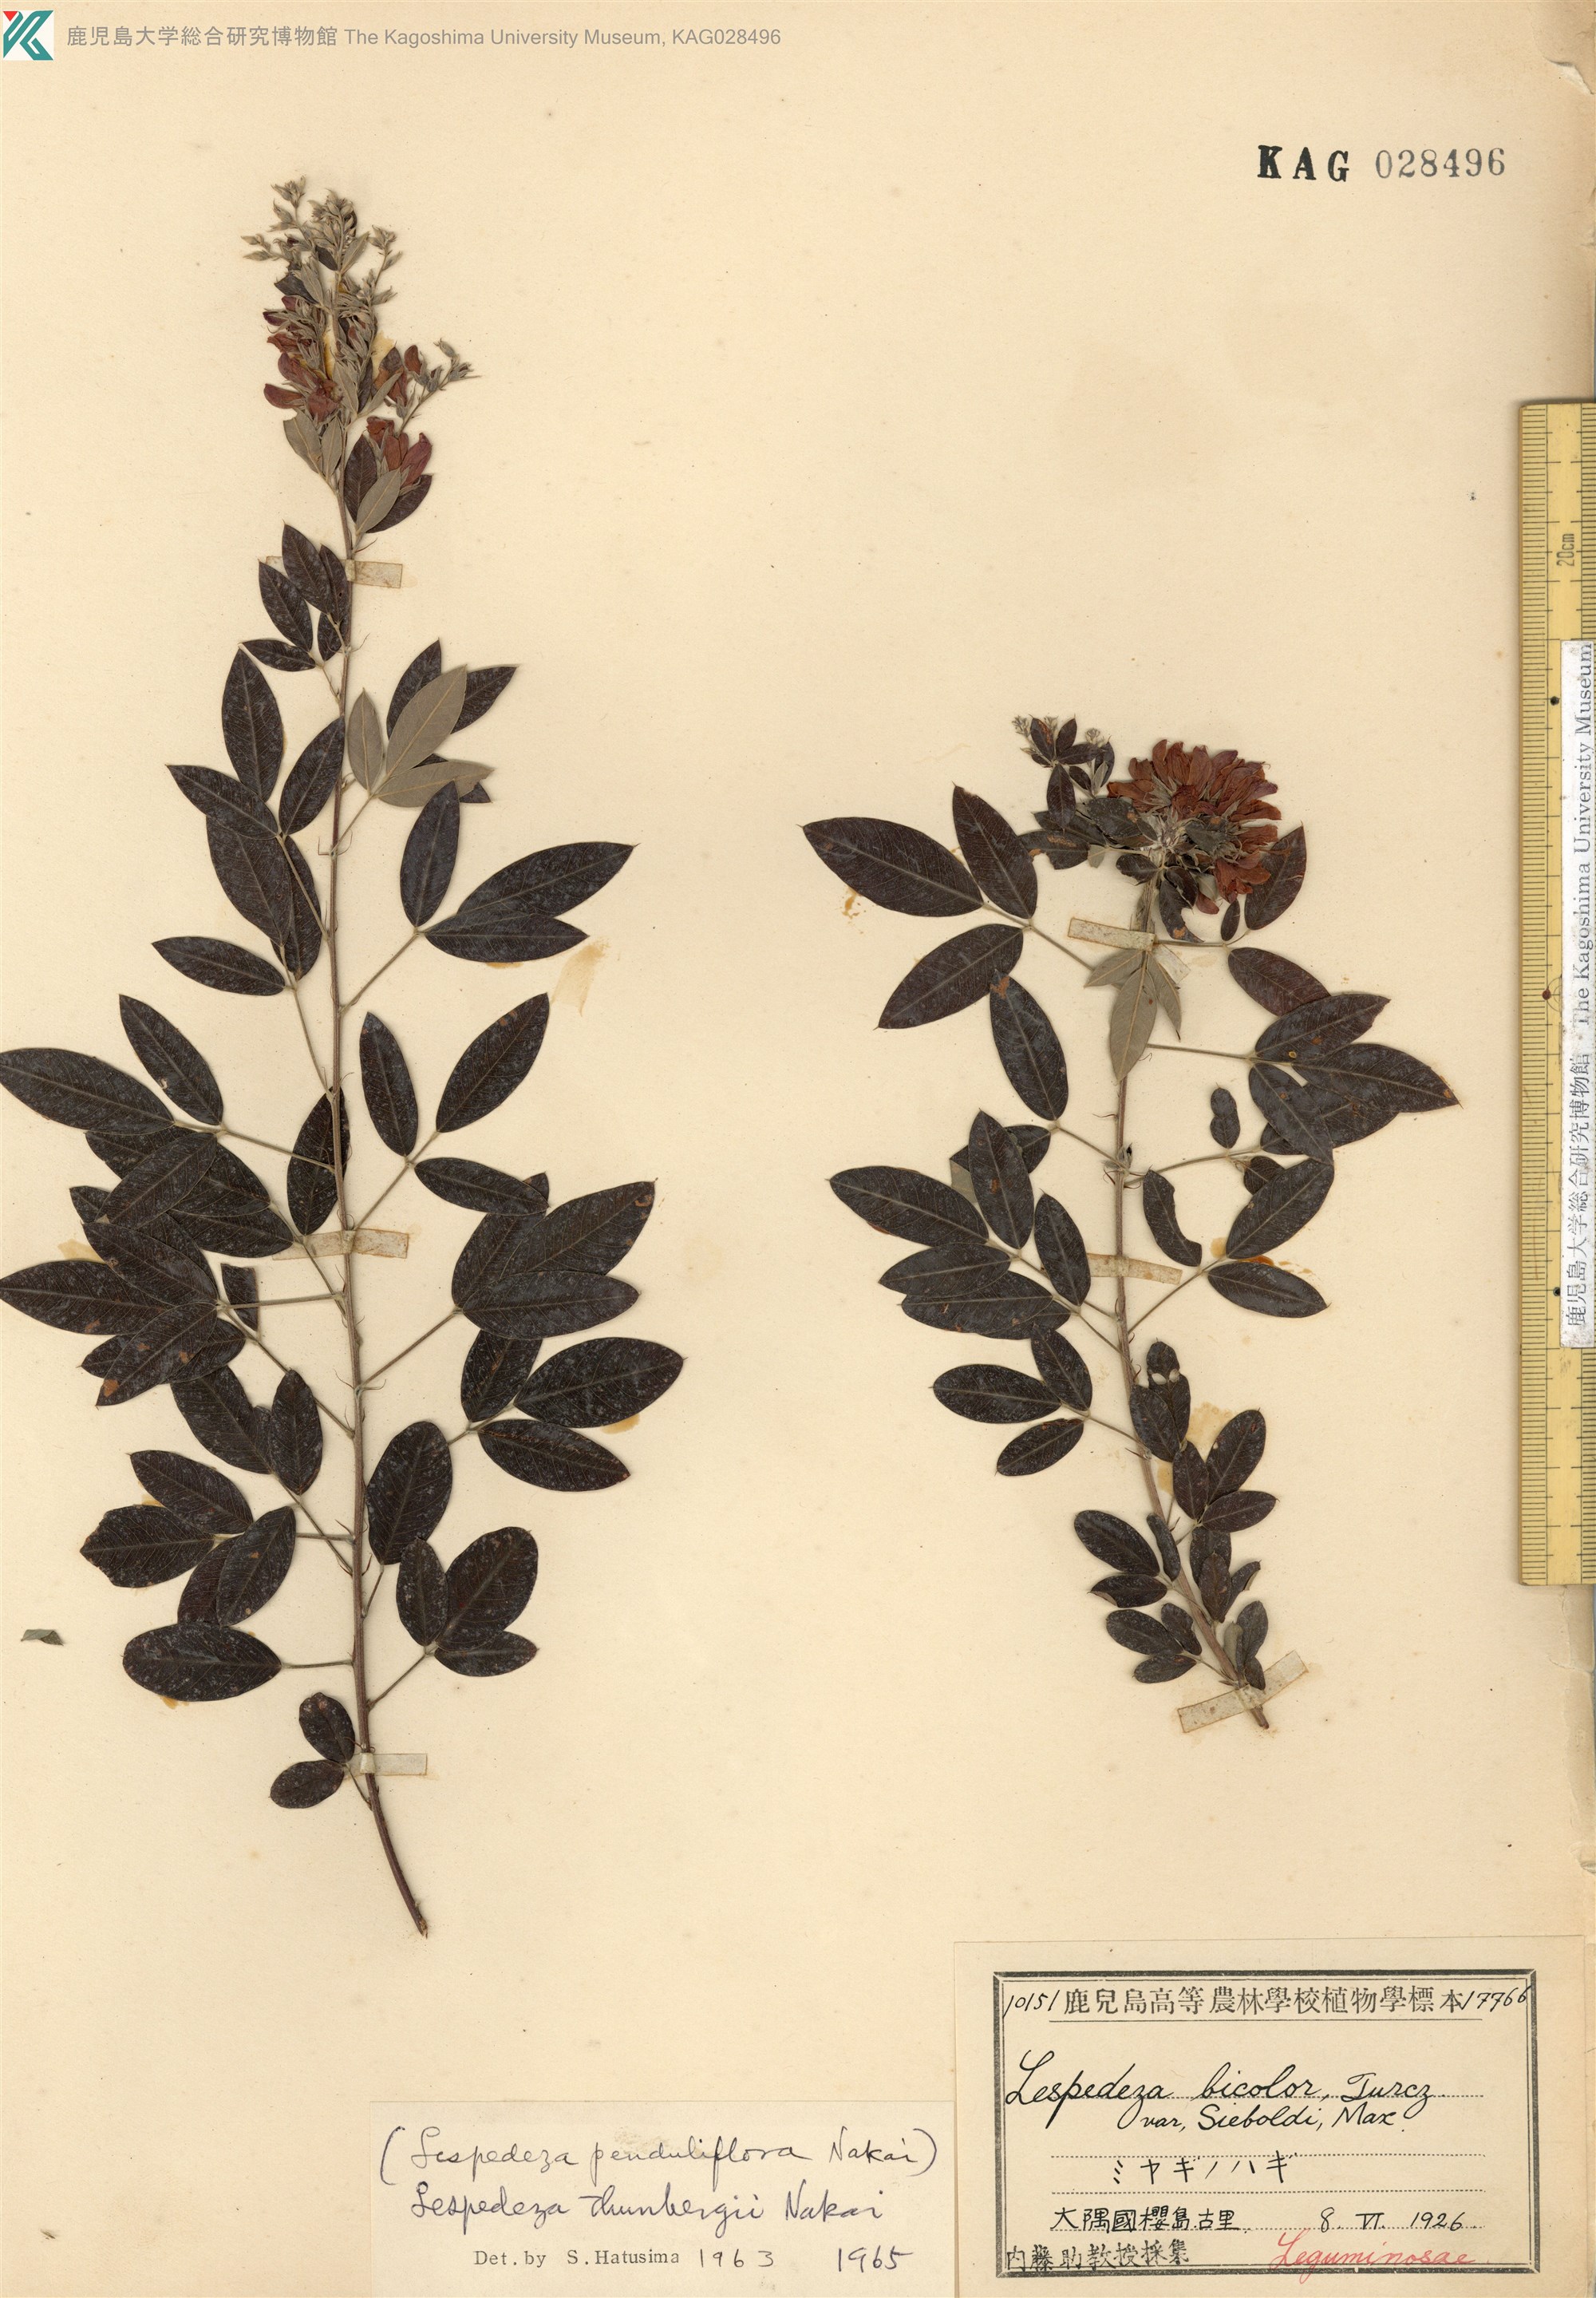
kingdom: Plantae
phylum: Tracheophyta
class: Magnoliopsida
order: Fabales
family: Fabaceae
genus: Lespedeza
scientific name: Lespedeza thunbergii
